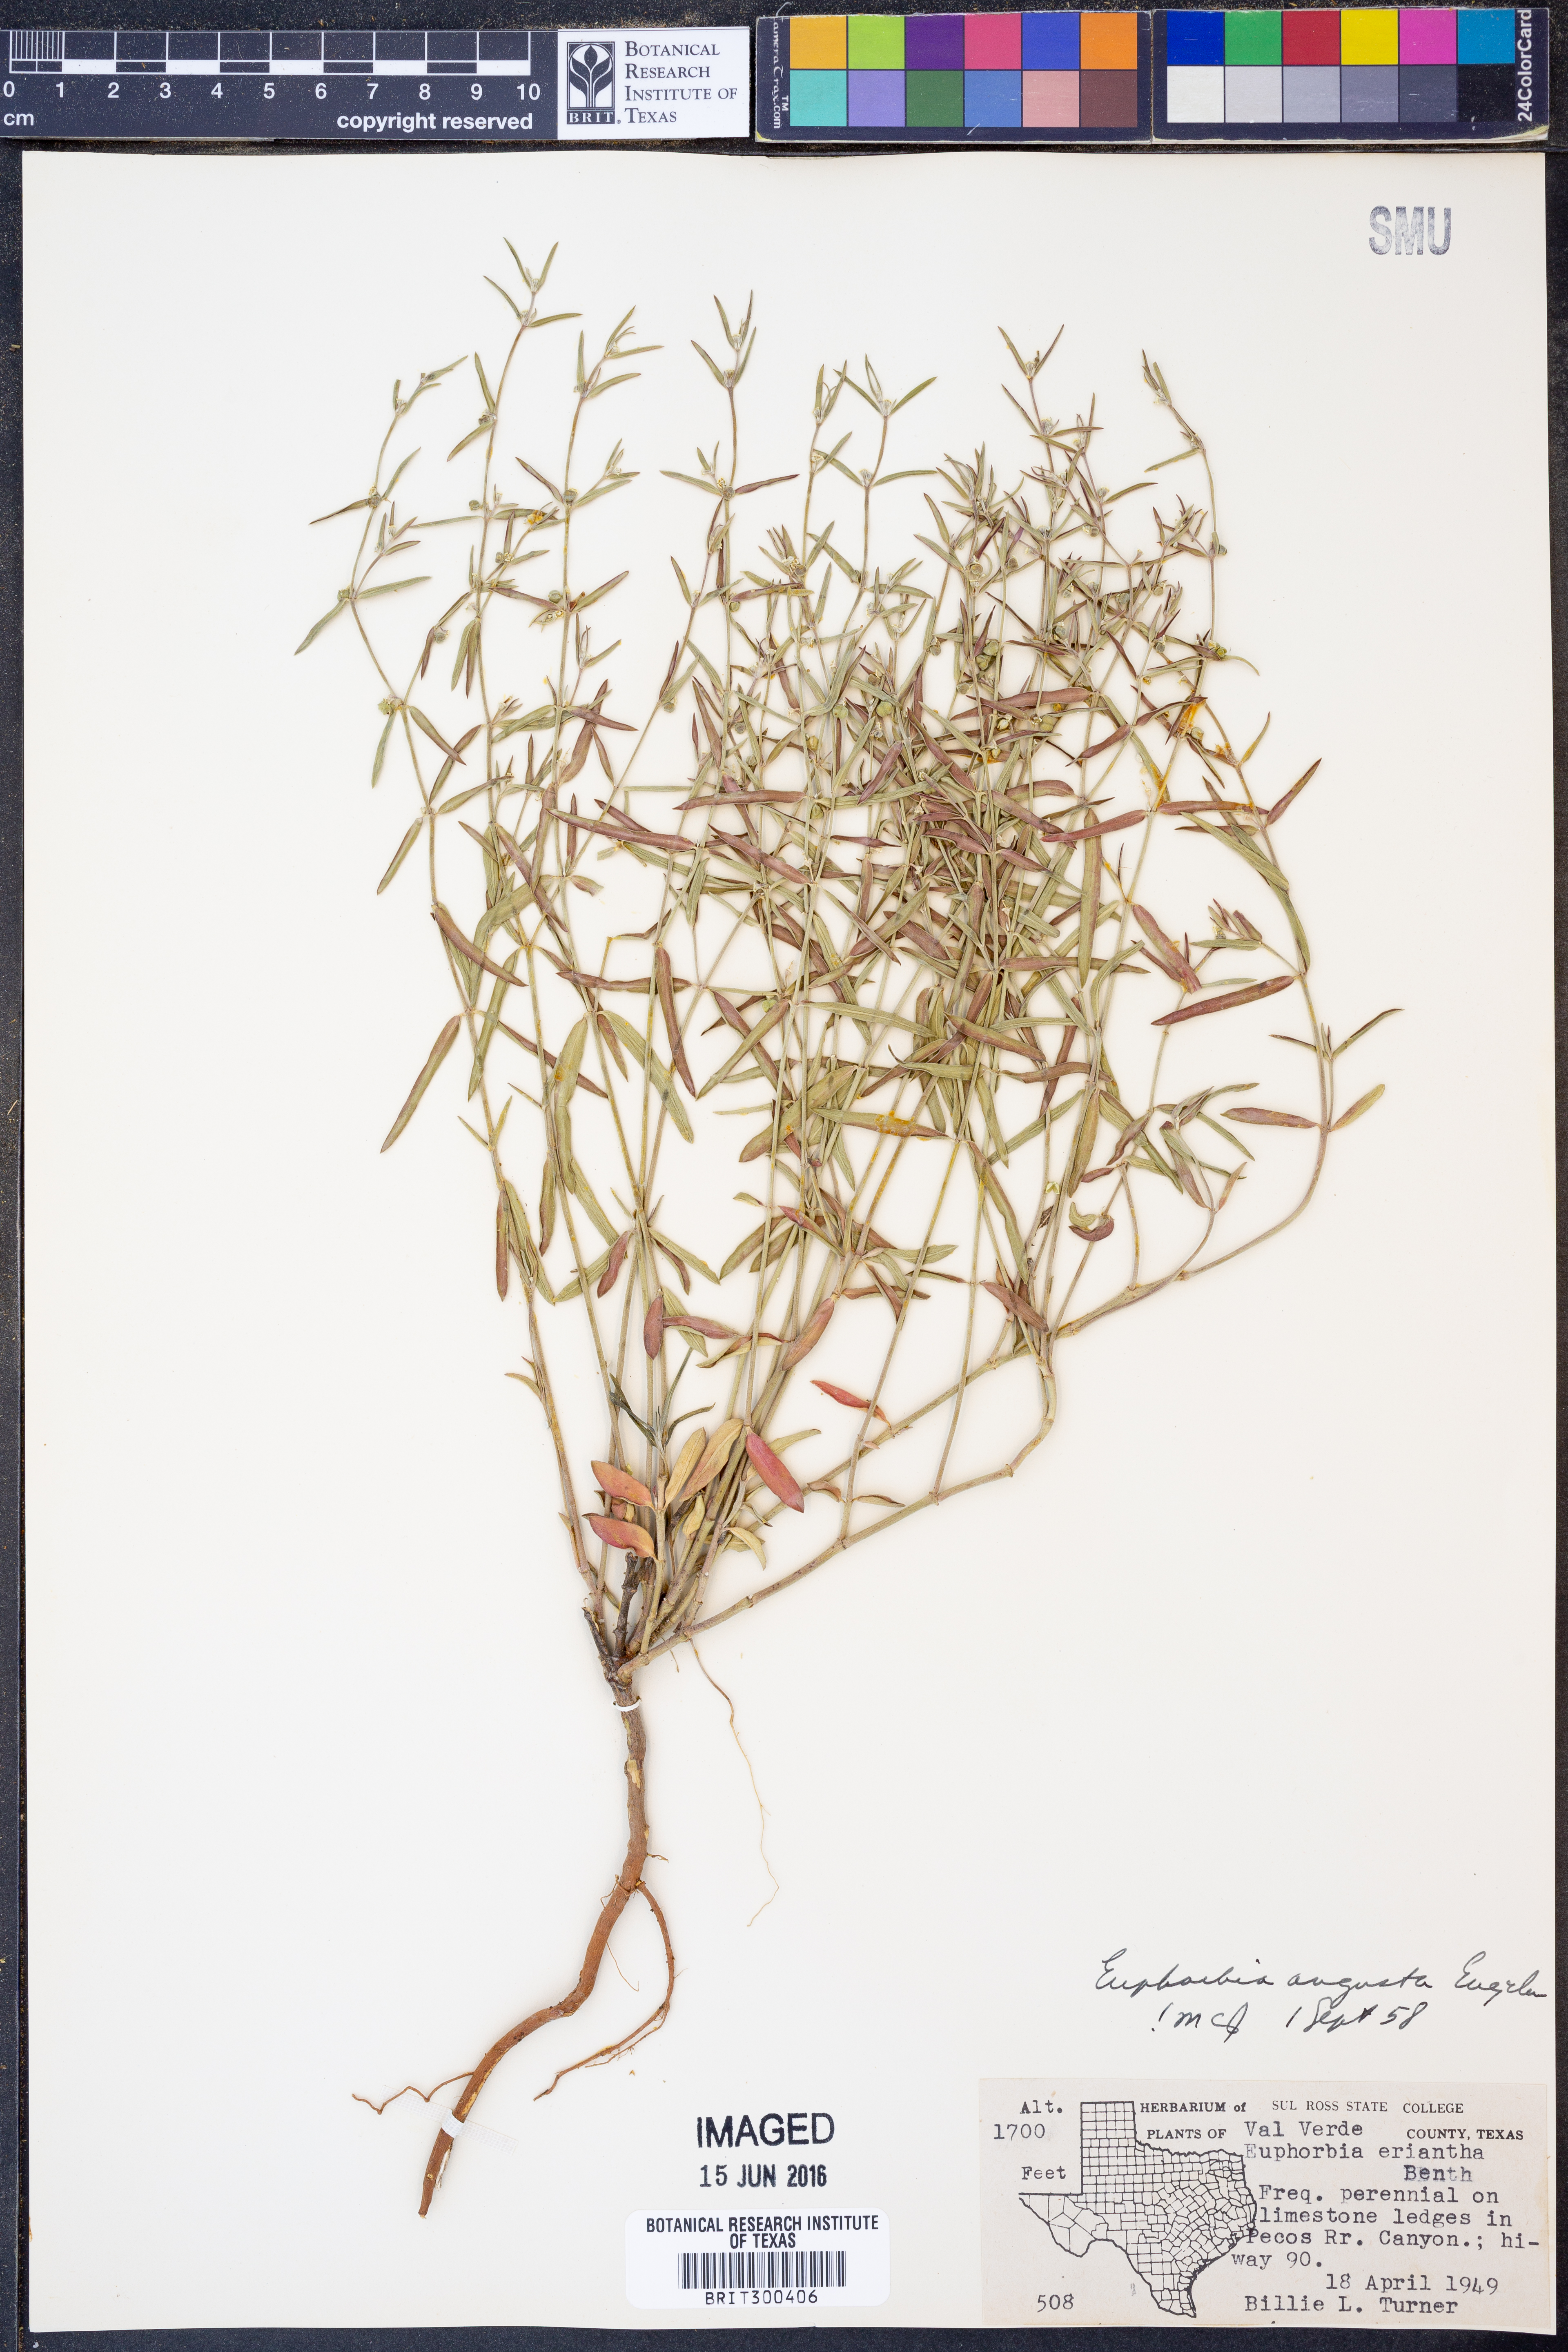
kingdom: Plantae
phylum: Tracheophyta
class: Magnoliopsida
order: Malpighiales
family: Euphorbiaceae
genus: Euphorbia
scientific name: Euphorbia angusta
